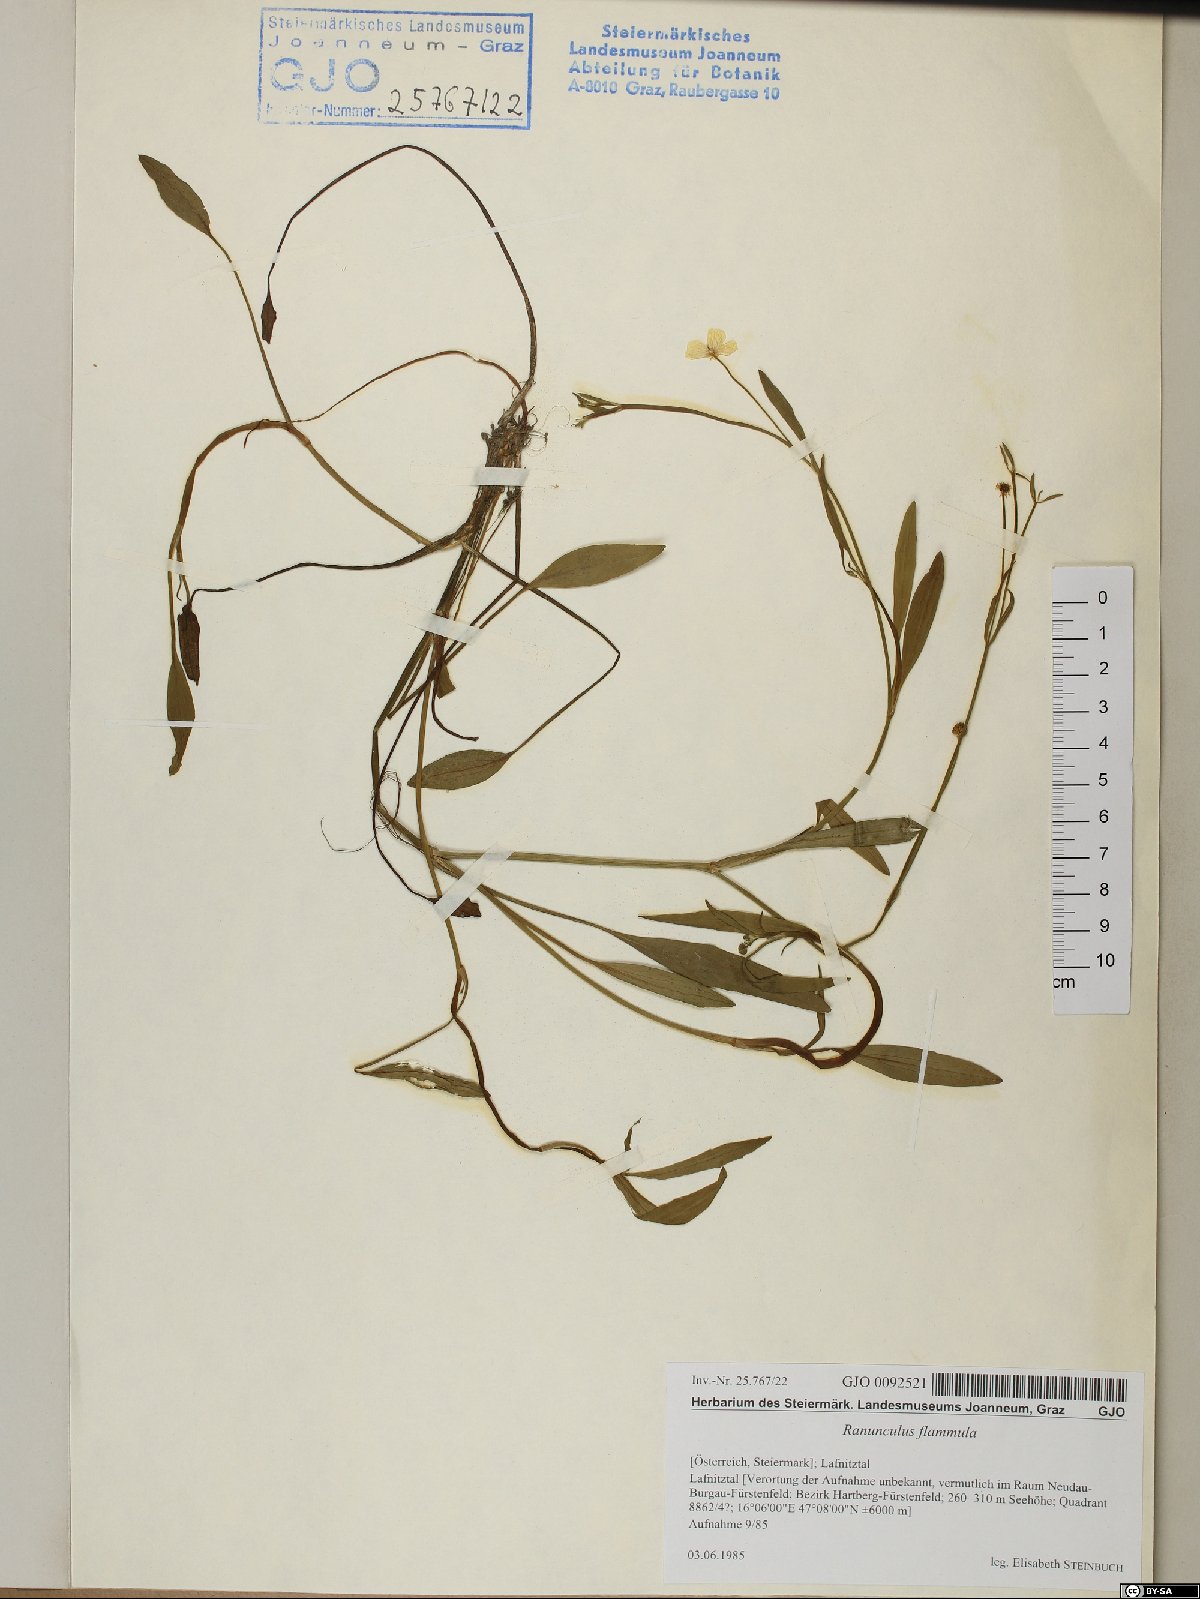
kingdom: Plantae
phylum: Tracheophyta
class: Magnoliopsida
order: Ranunculales
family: Ranunculaceae
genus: Ranunculus
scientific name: Ranunculus flammula
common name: Lesser spearwort
